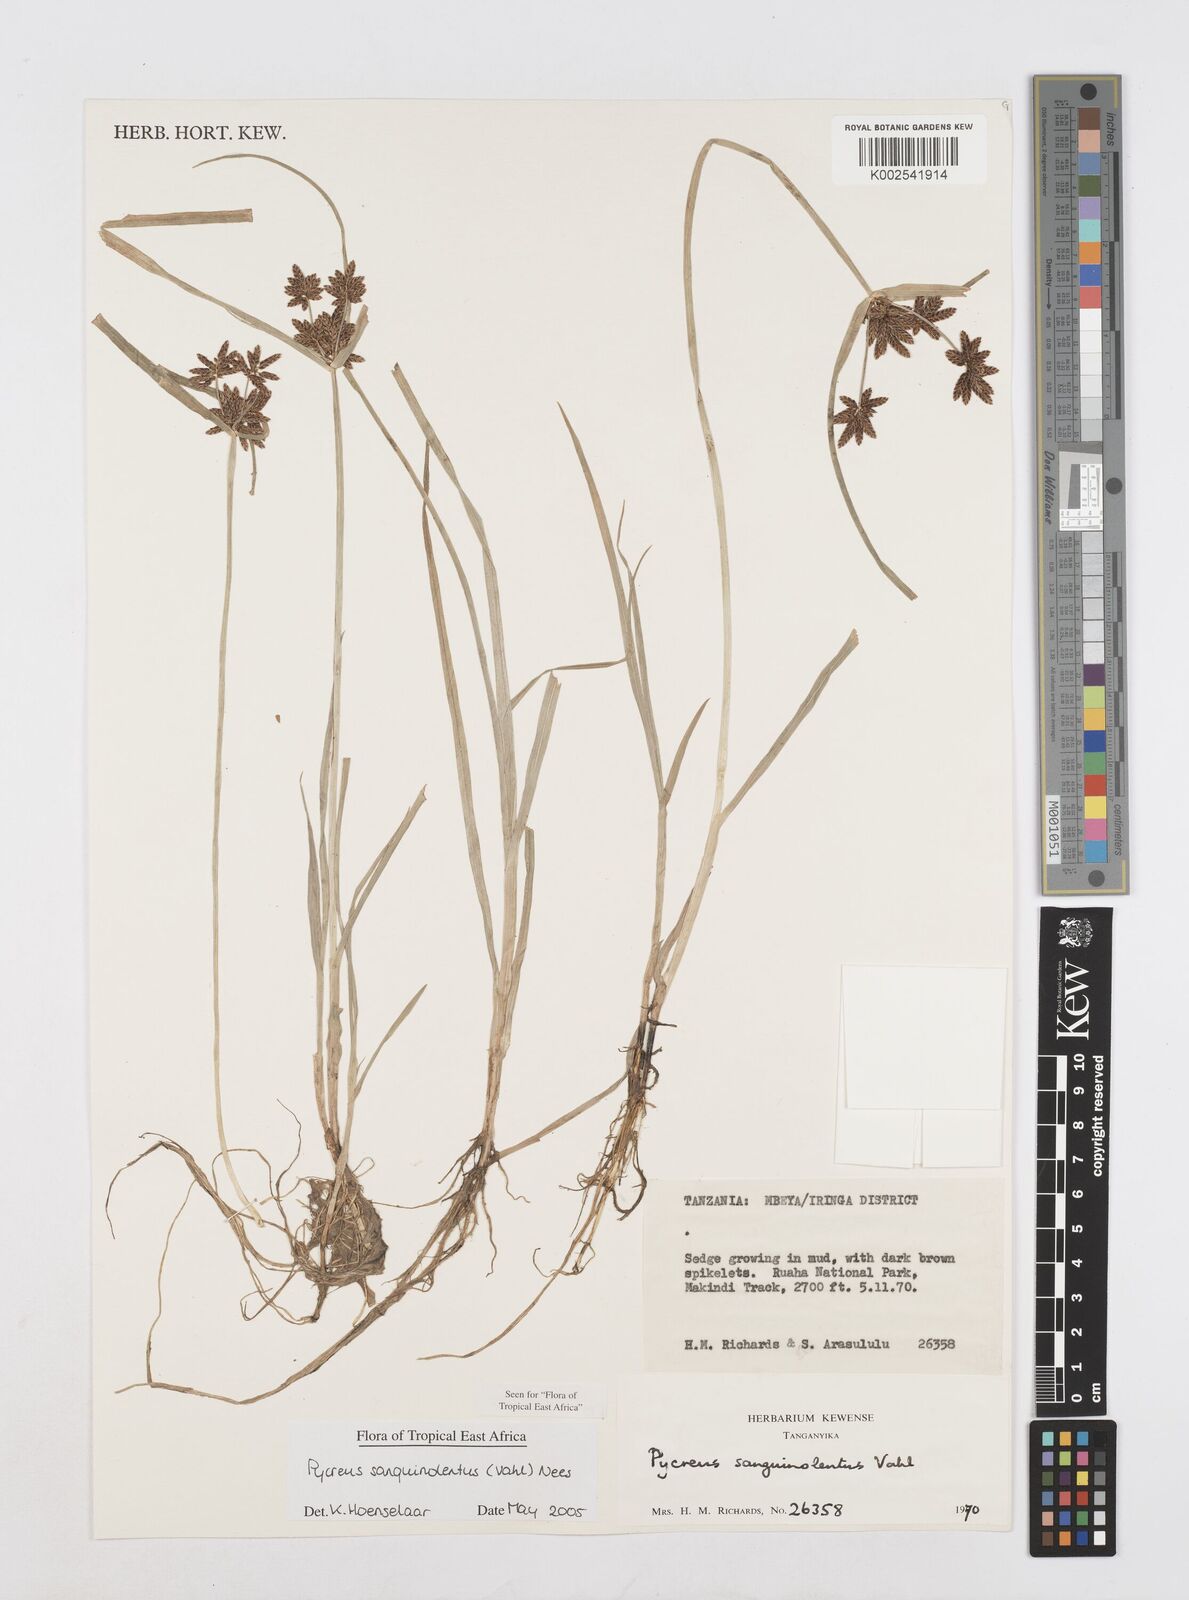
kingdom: Plantae
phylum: Tracheophyta
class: Liliopsida
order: Poales
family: Cyperaceae
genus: Cyperus
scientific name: Cyperus sanguinolentus
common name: Purpleglume flatsedge
